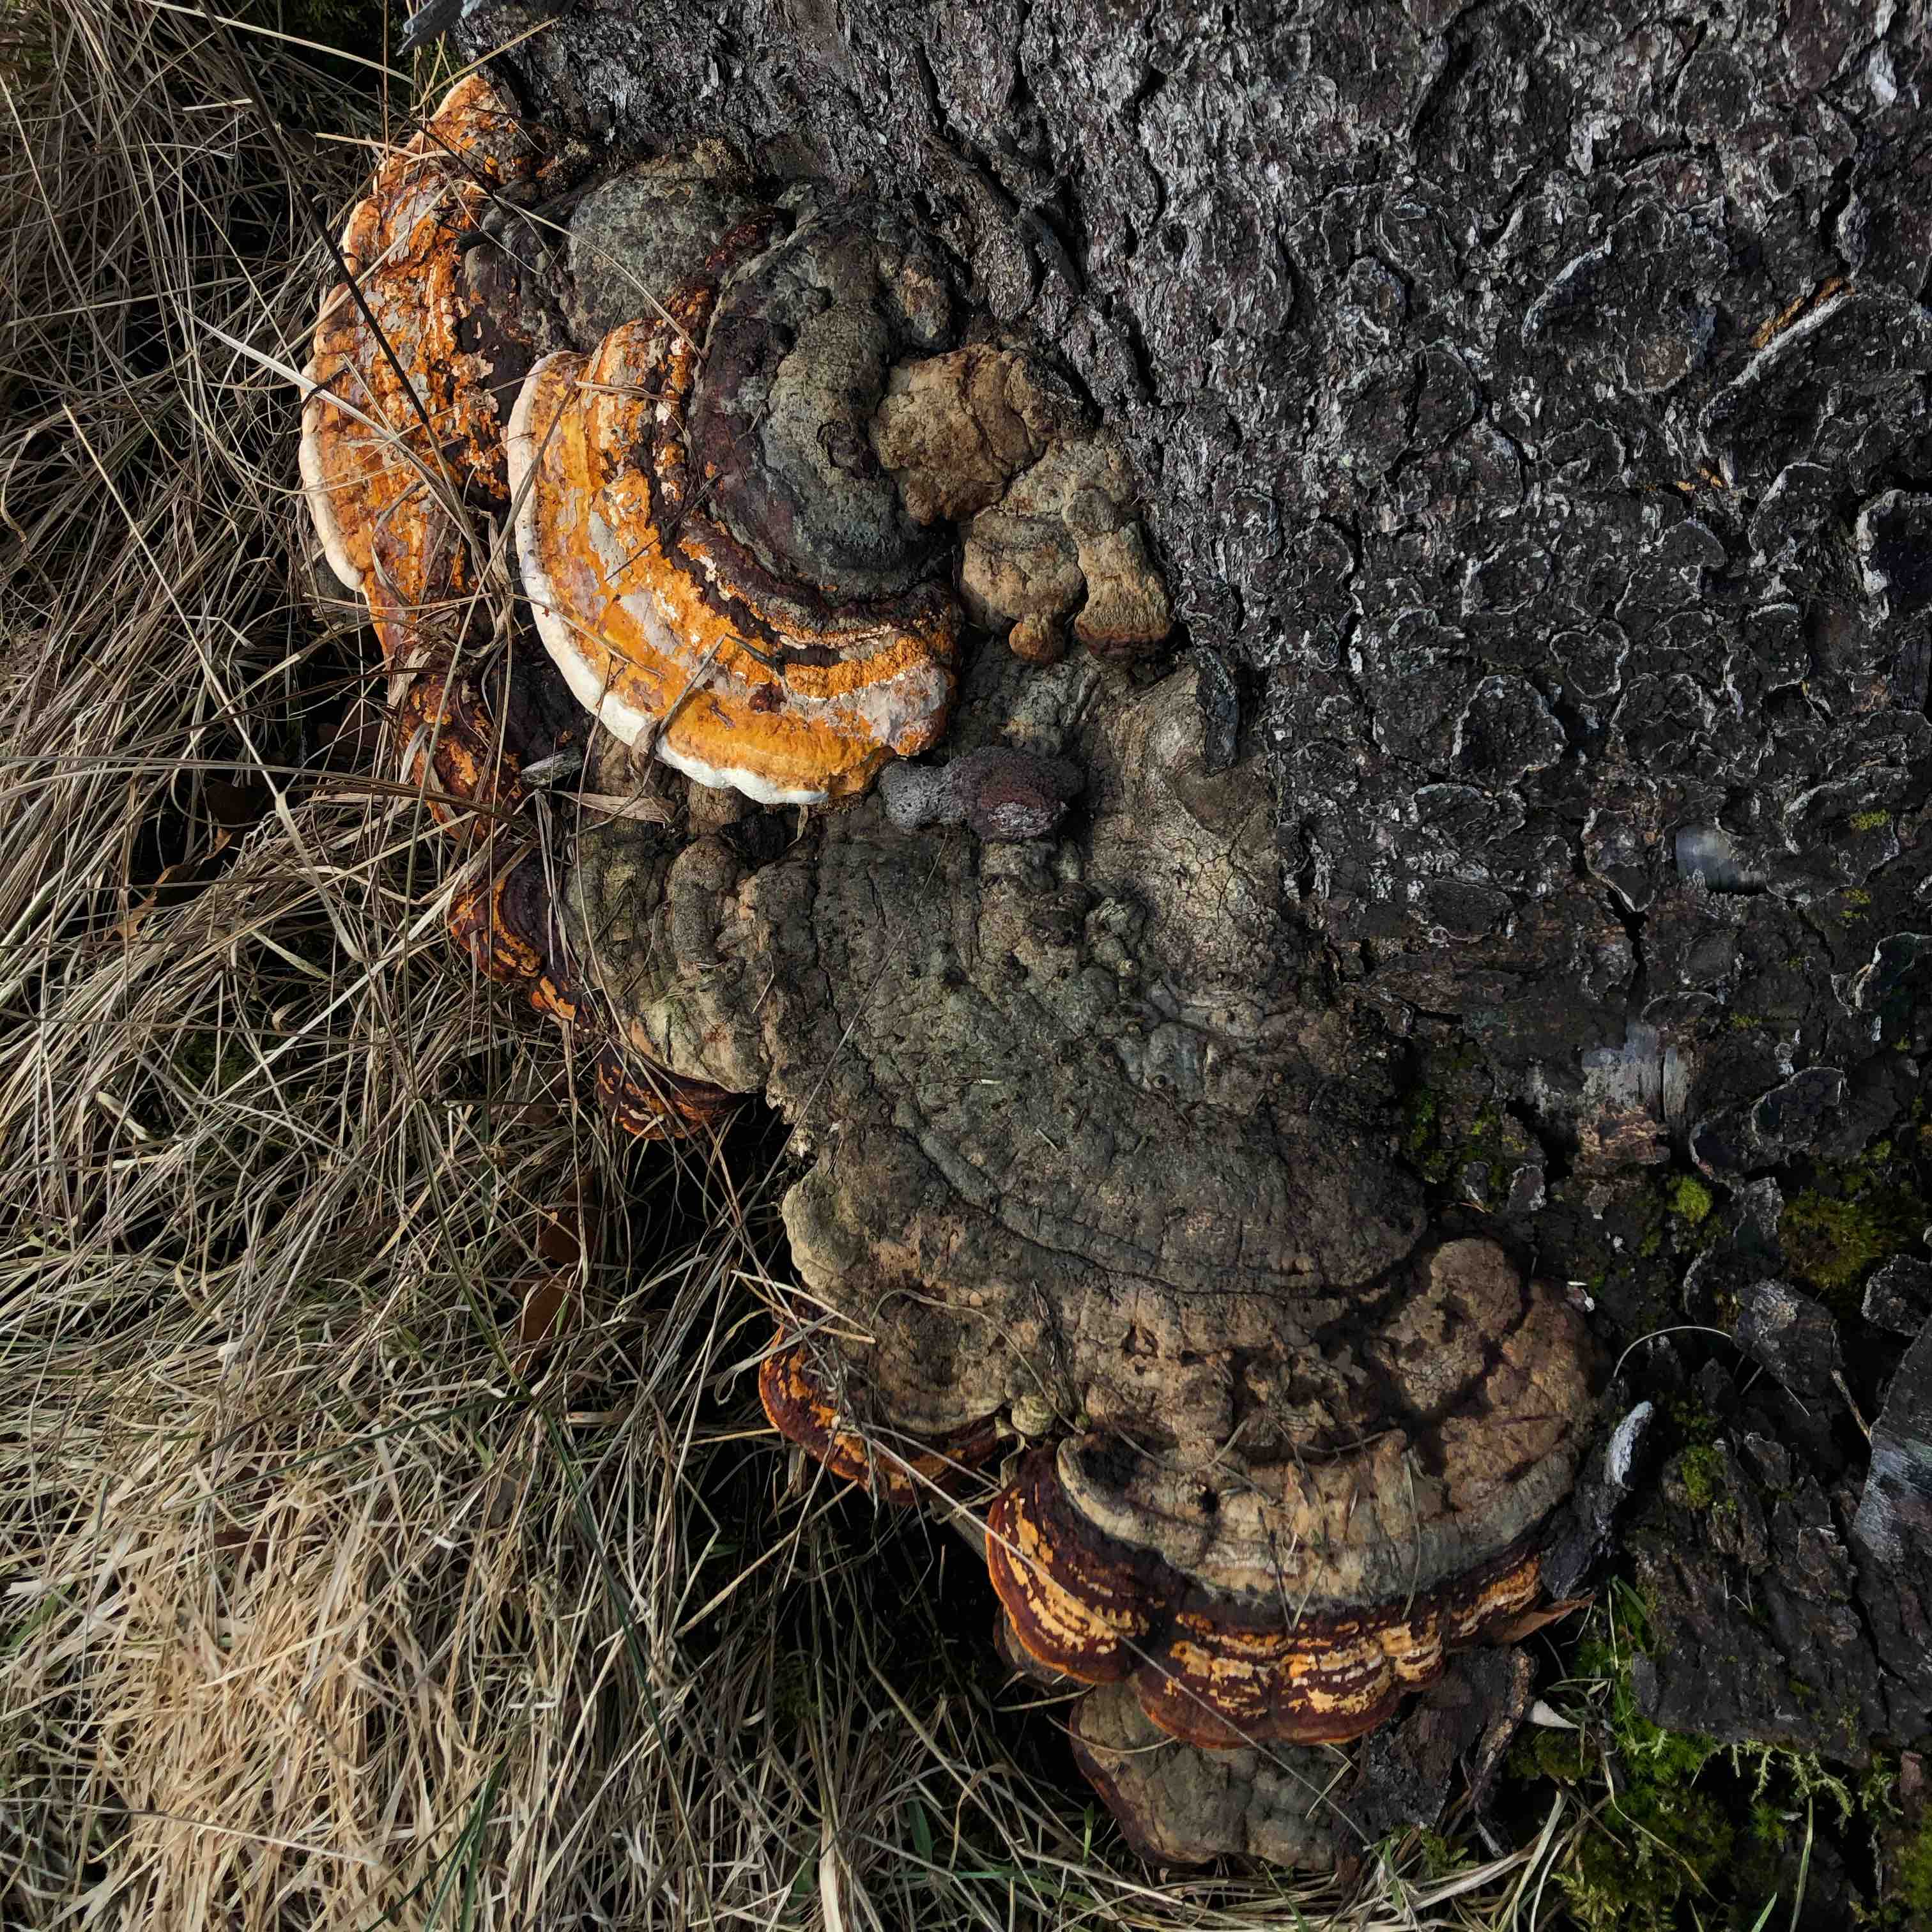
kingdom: Fungi
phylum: Basidiomycota
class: Agaricomycetes
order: Polyporales
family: Fomitopsidaceae
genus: Fomitopsis
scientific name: Fomitopsis pinicola
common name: randbæltet hovporesvamp
